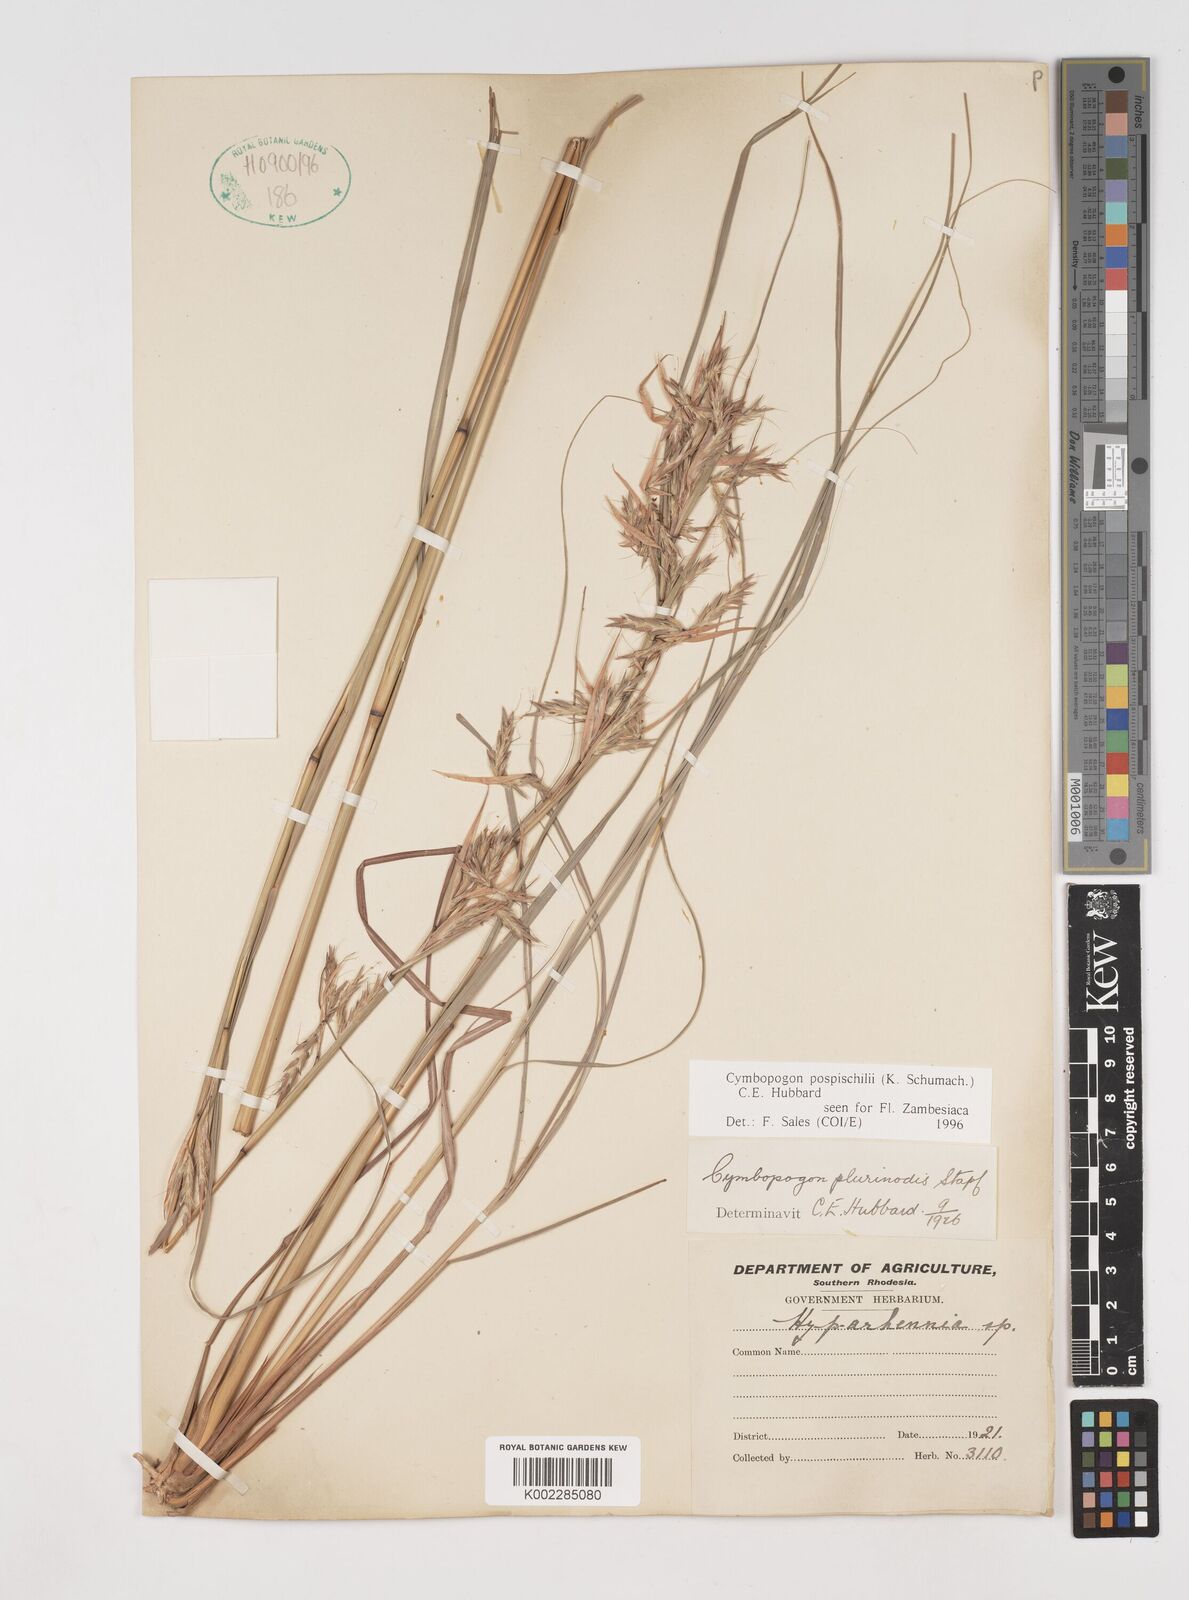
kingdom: Plantae
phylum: Tracheophyta
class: Liliopsida
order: Poales
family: Poaceae
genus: Cymbopogon
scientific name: Cymbopogon pospischilii
